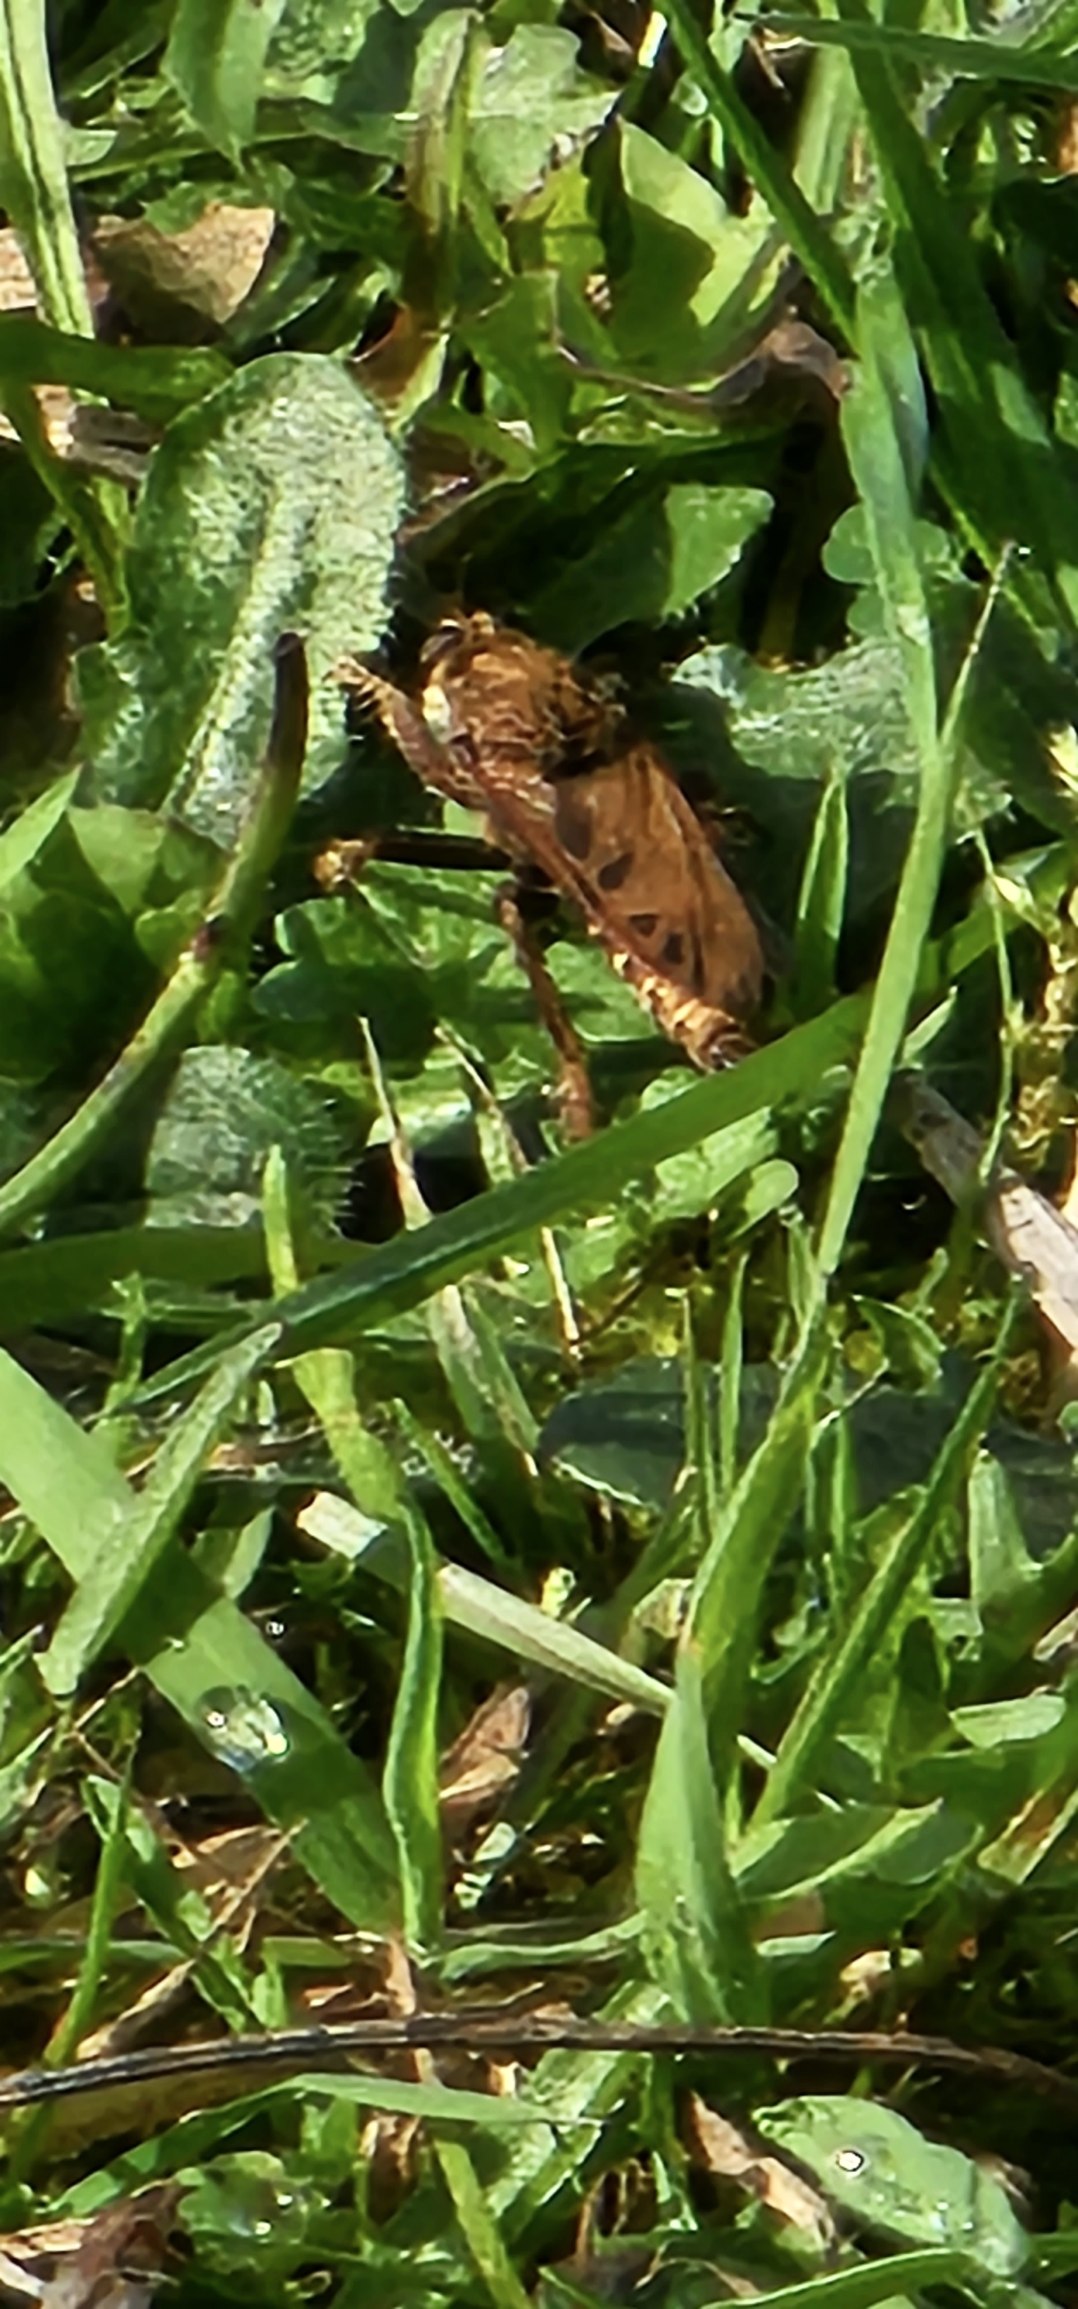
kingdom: Animalia
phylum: Arthropoda
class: Insecta
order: Diptera
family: Asilidae
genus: Asilus
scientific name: Asilus crabroniformis
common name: Stor gødningsrovflue
